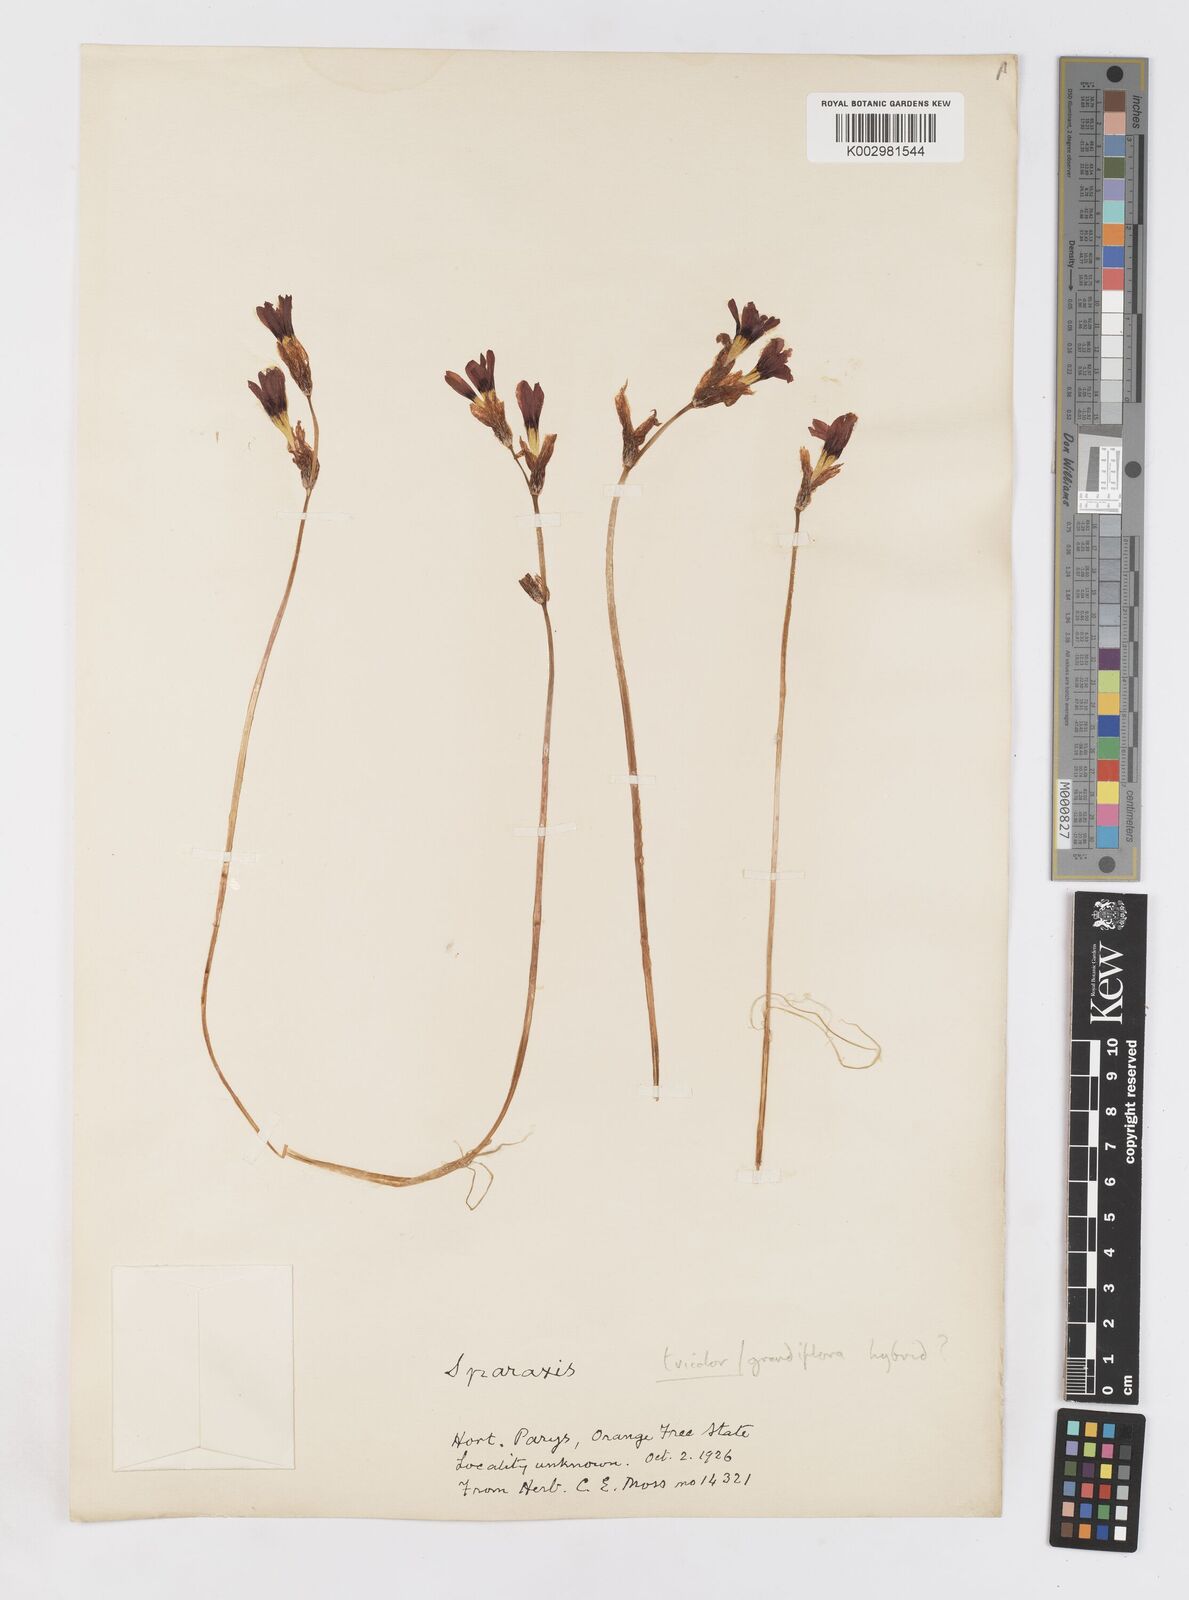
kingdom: Plantae
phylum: Tracheophyta
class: Liliopsida
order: Asparagales
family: Iridaceae
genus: Sparaxis
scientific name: Sparaxis
